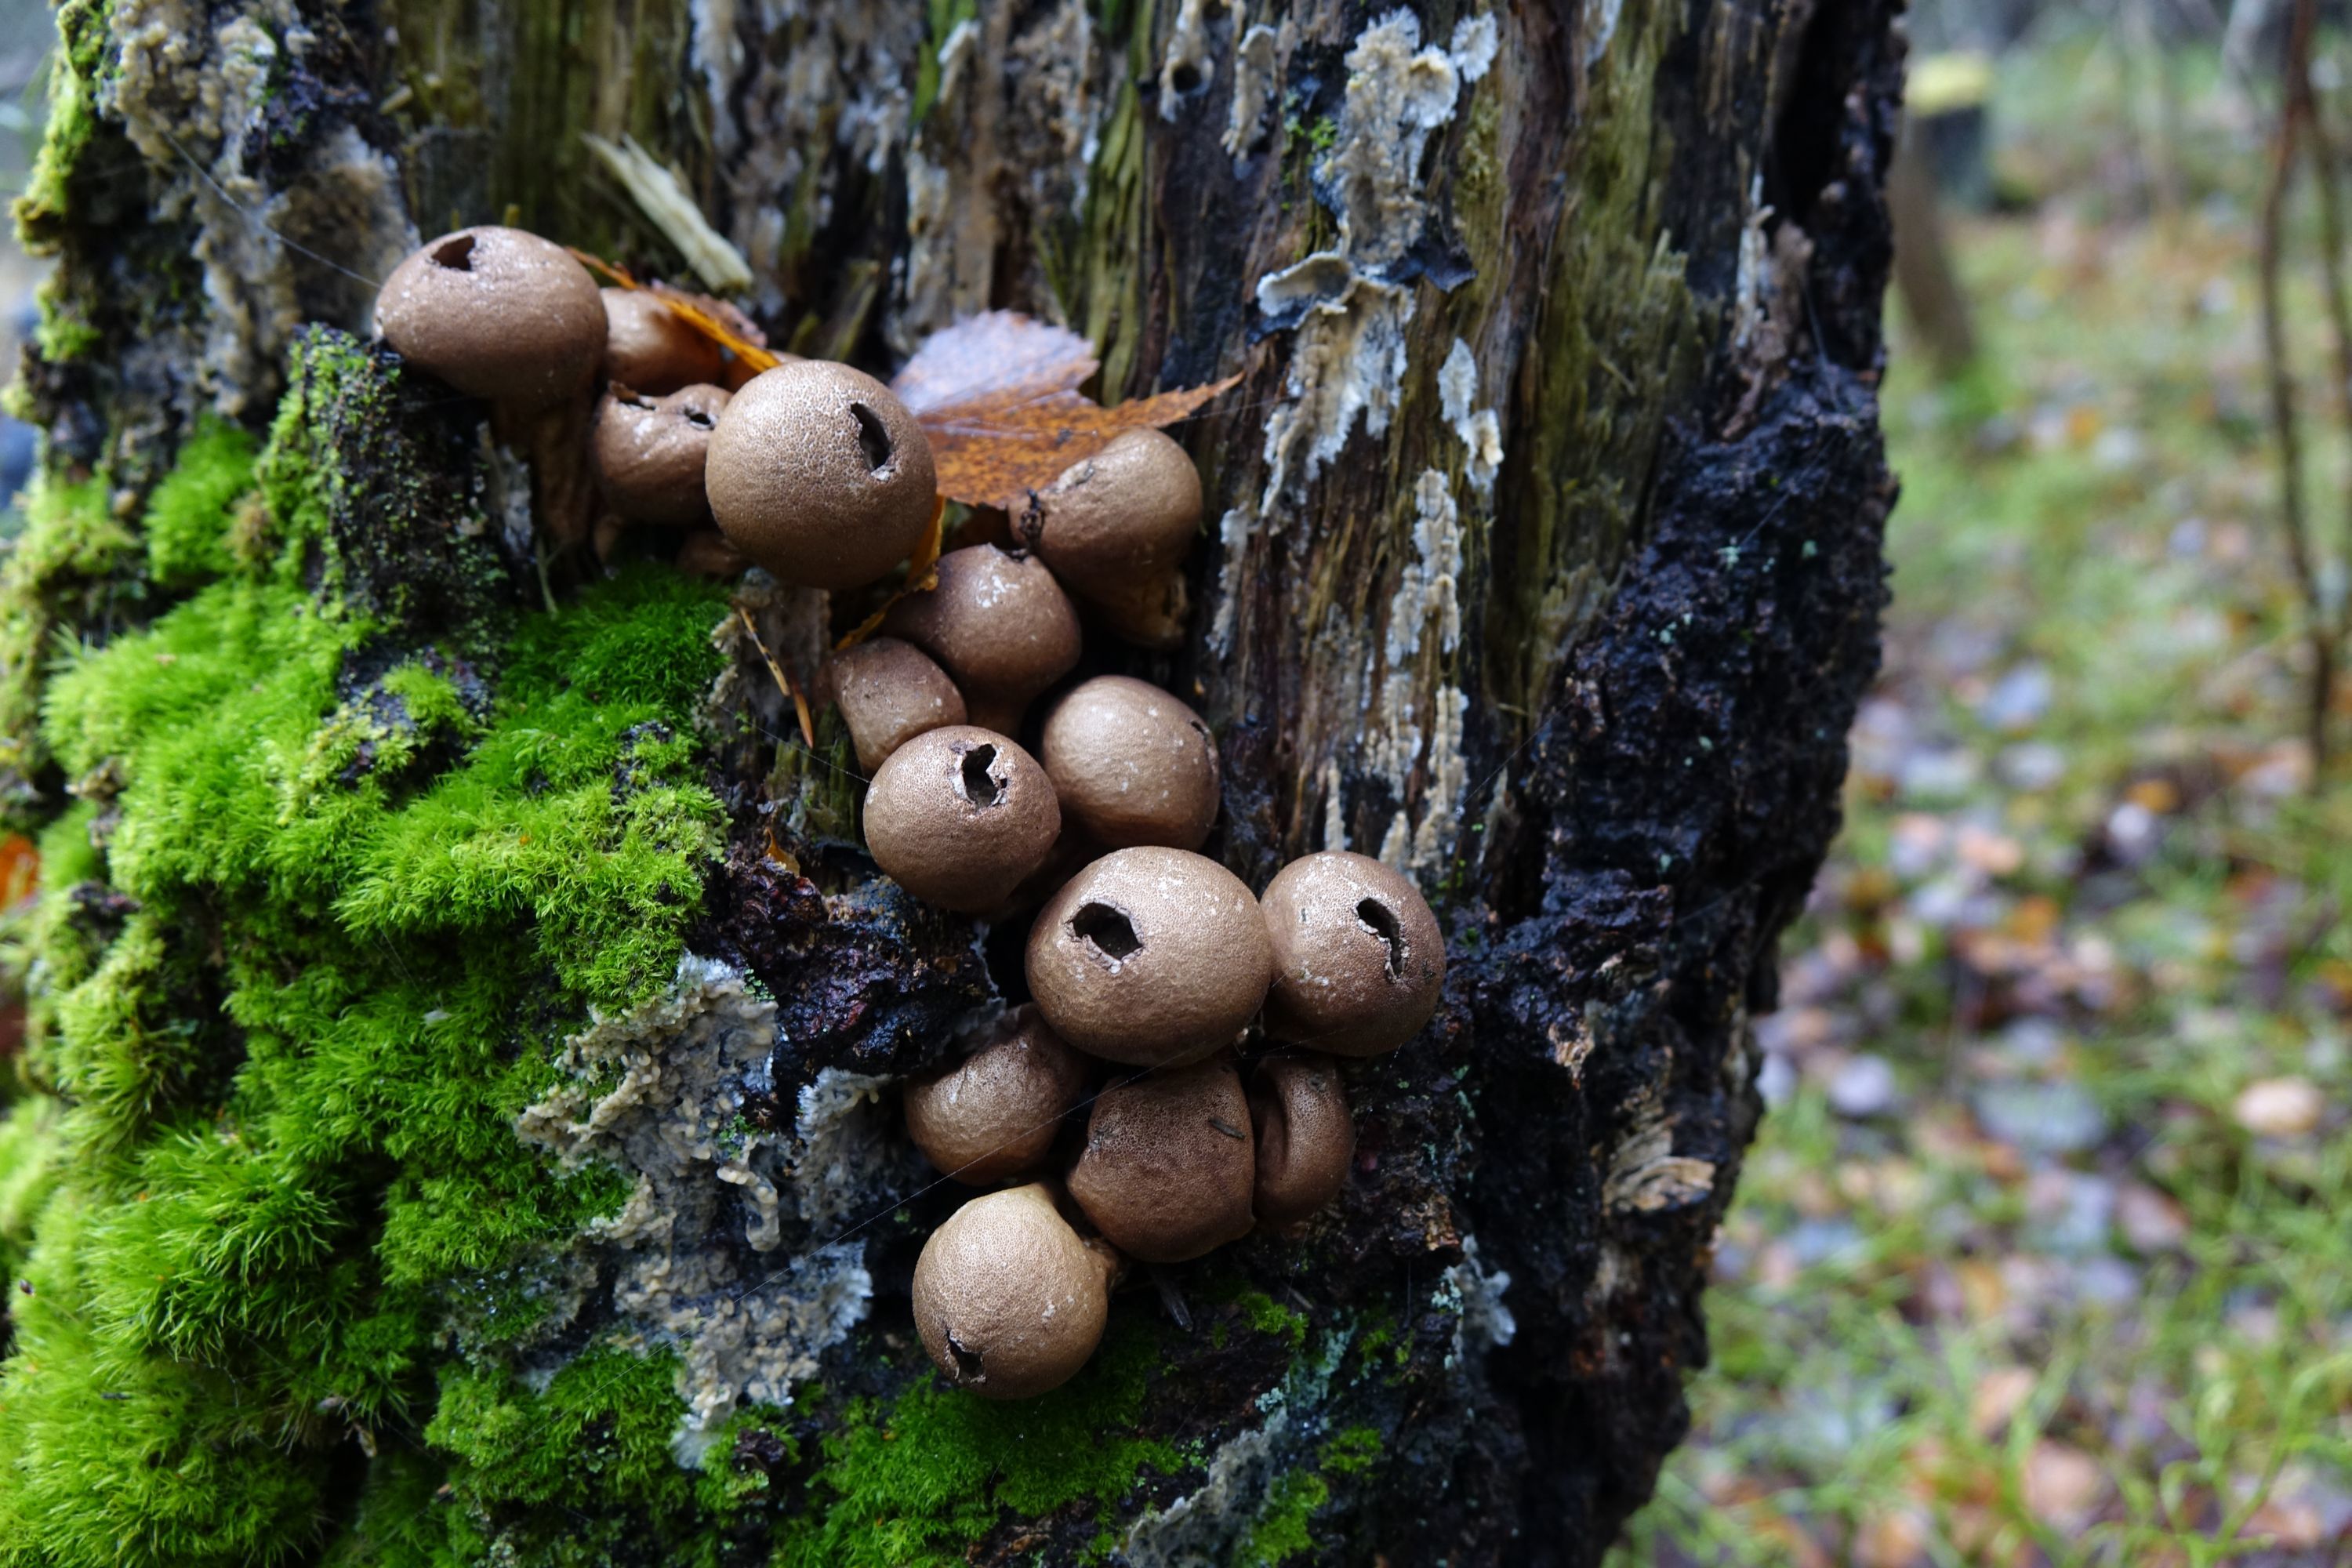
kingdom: Fungi
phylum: Basidiomycota
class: Agaricomycetes
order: Agaricales
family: Lycoperdaceae
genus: Apioperdon
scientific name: Apioperdon pyriforme
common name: Pear-shaped puffball
